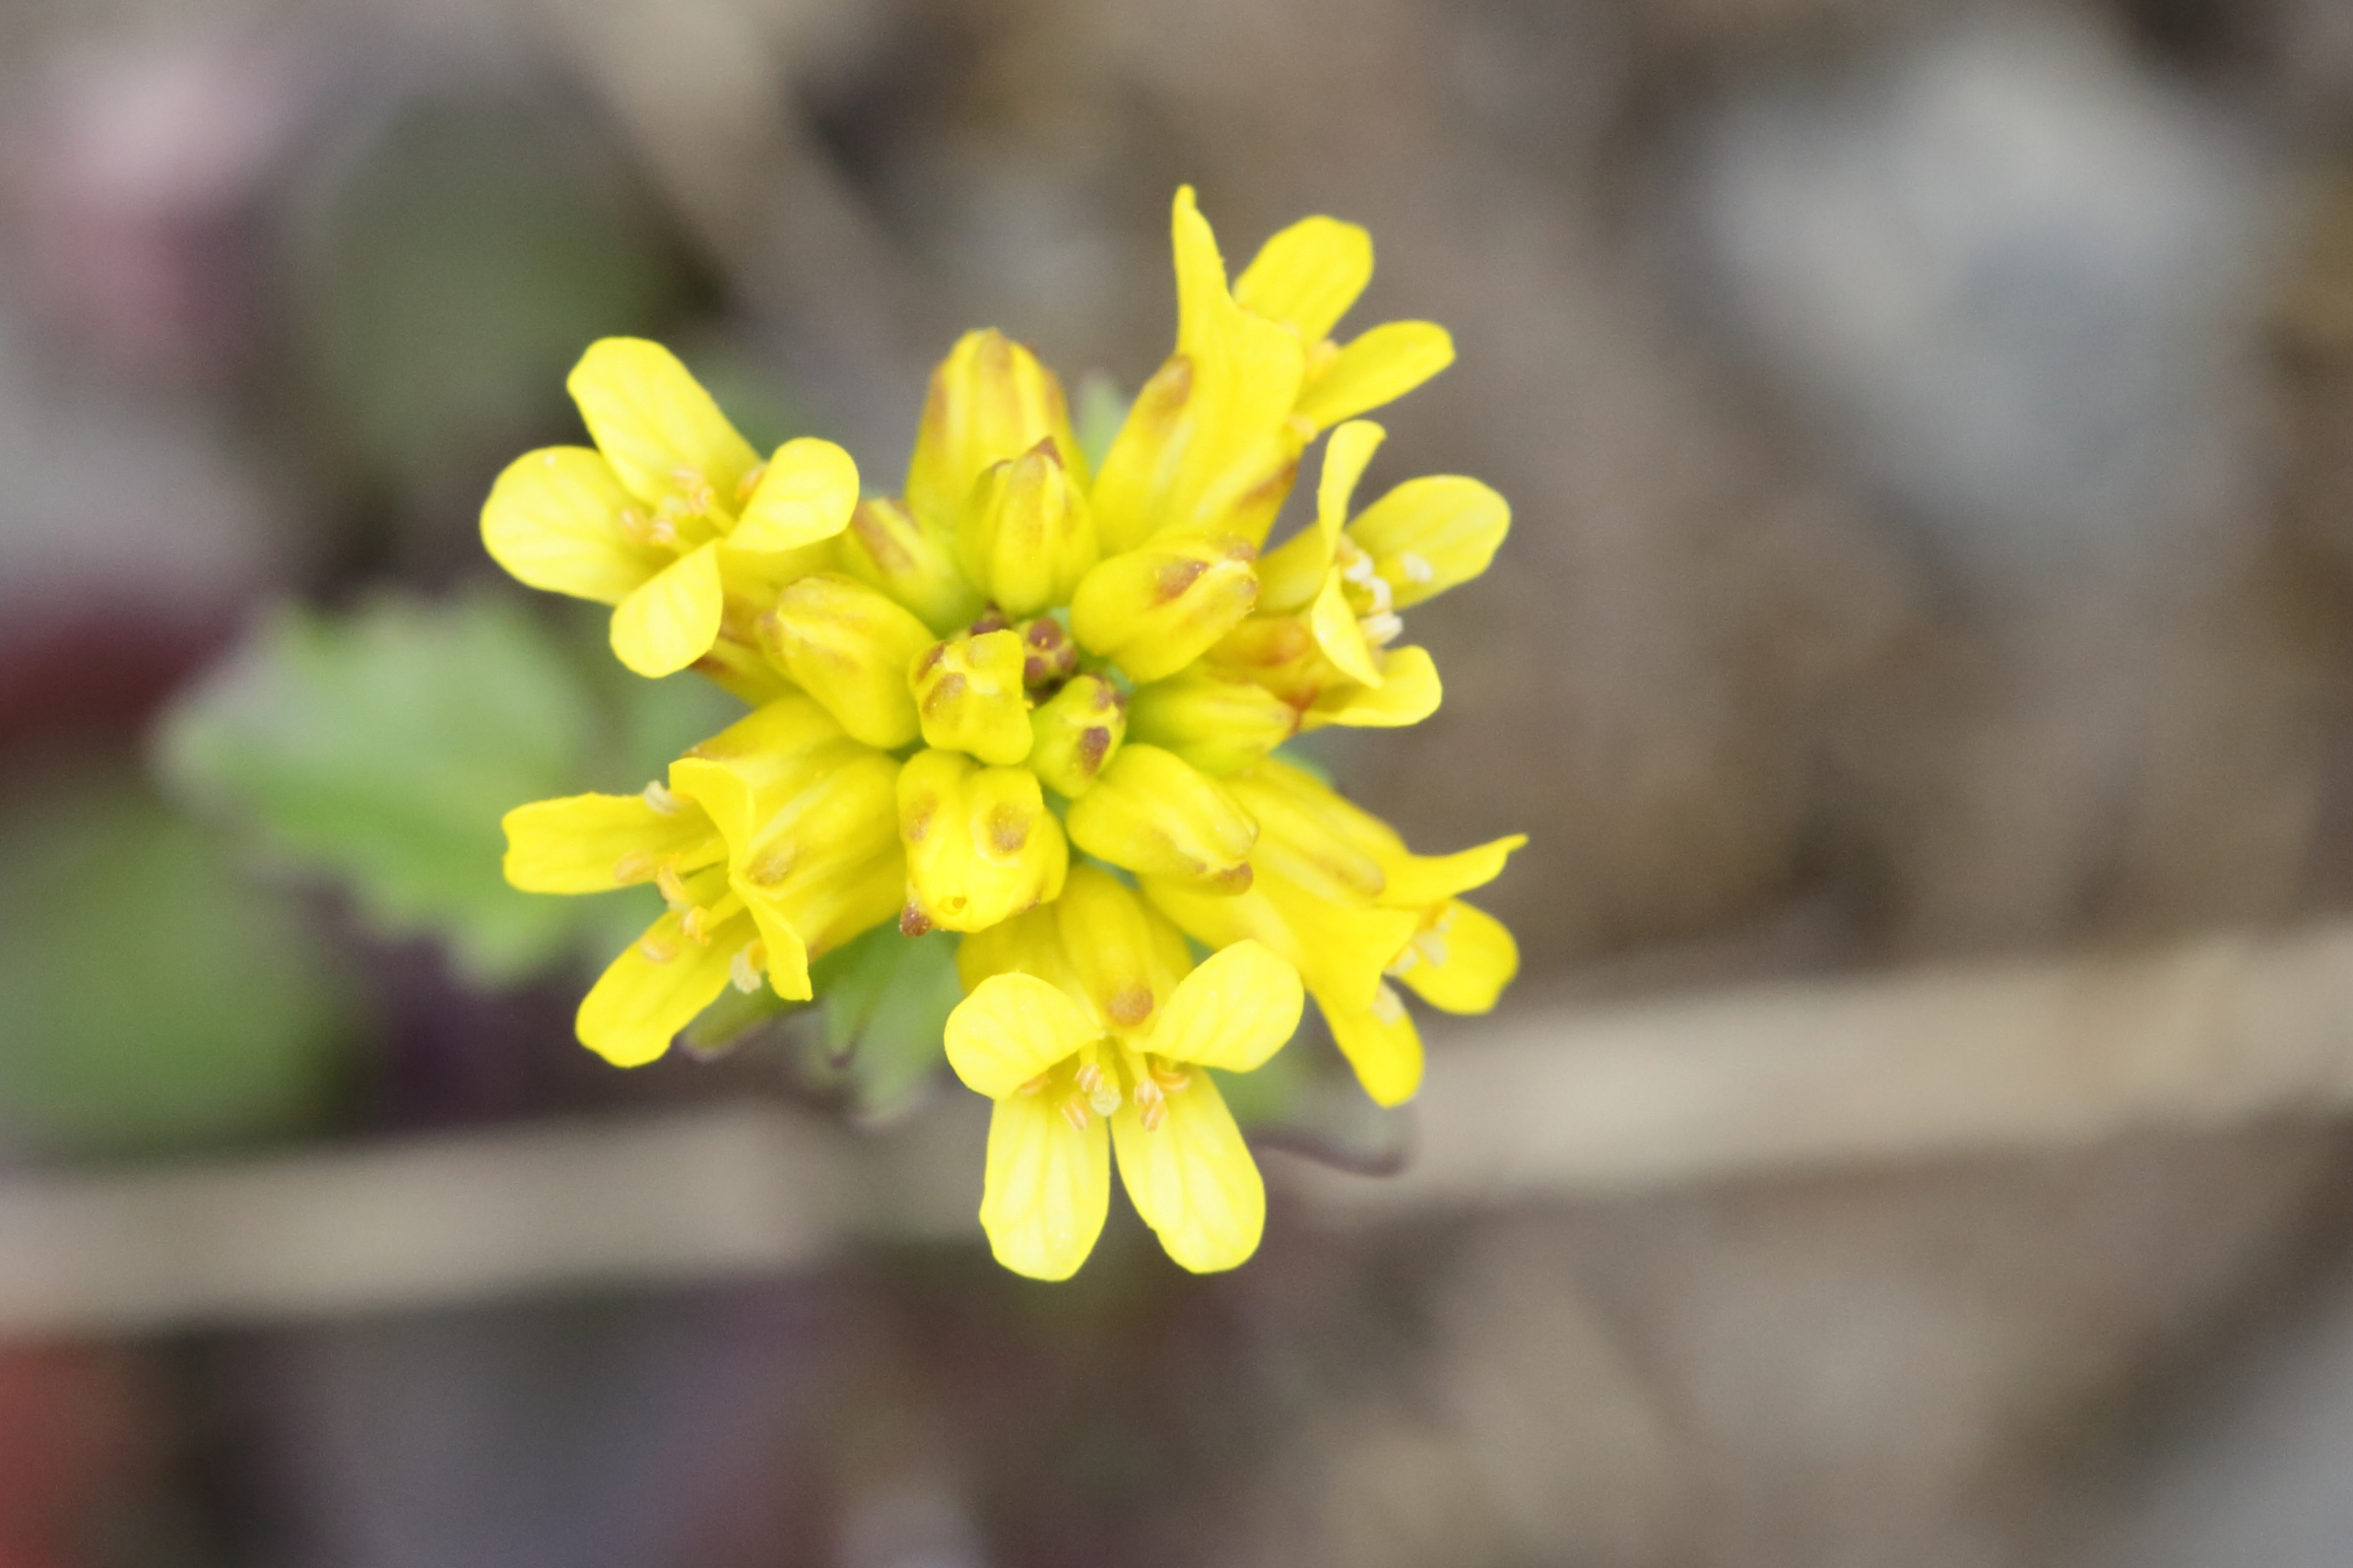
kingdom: Plantae
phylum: Tracheophyta
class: Magnoliopsida
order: Brassicales
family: Brassicaceae
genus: Barbarea
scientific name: Barbarea intermedia
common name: Randhåret vinterkarse
